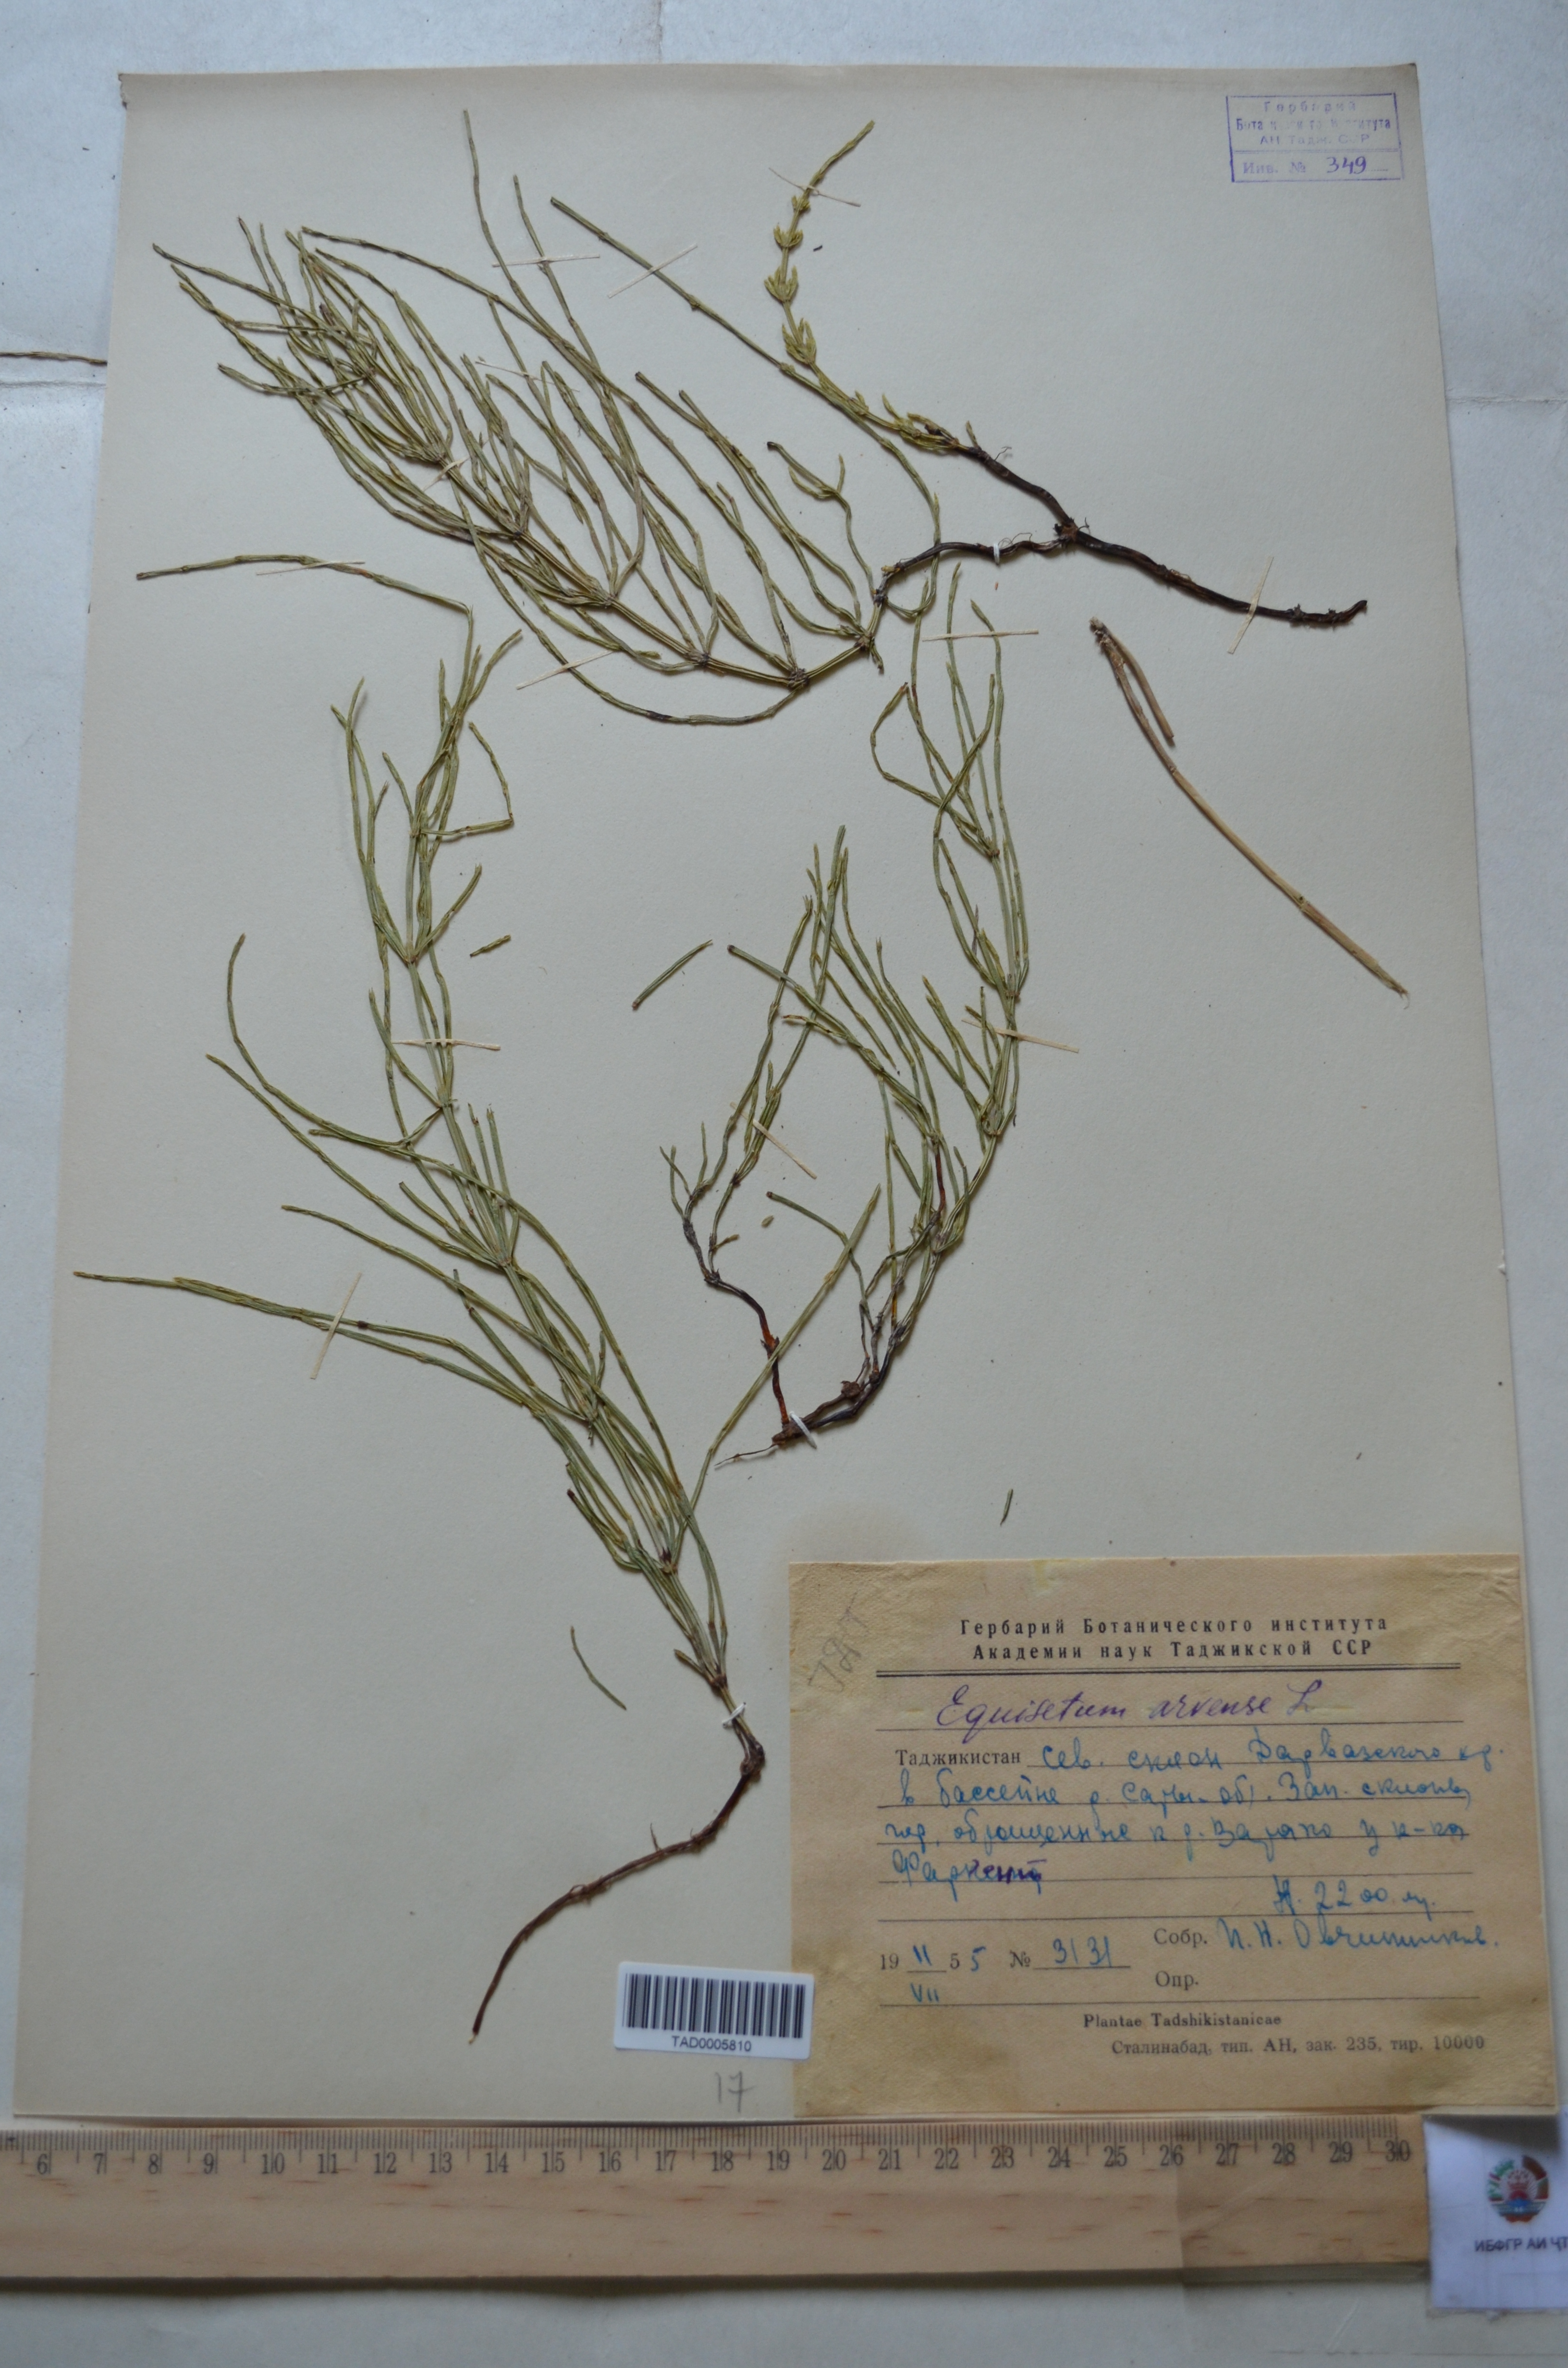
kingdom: Plantae
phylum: Tracheophyta
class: Polypodiopsida
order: Equisetales
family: Equisetaceae
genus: Equisetum
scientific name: Equisetum arvense
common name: Field horsetail
